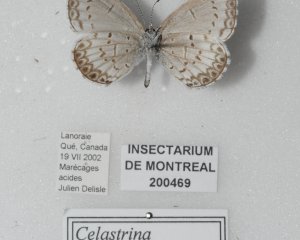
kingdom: Animalia
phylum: Arthropoda
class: Insecta
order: Lepidoptera
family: Lycaenidae
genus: Cyaniris
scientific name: Cyaniris neglecta
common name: Summer Azure
